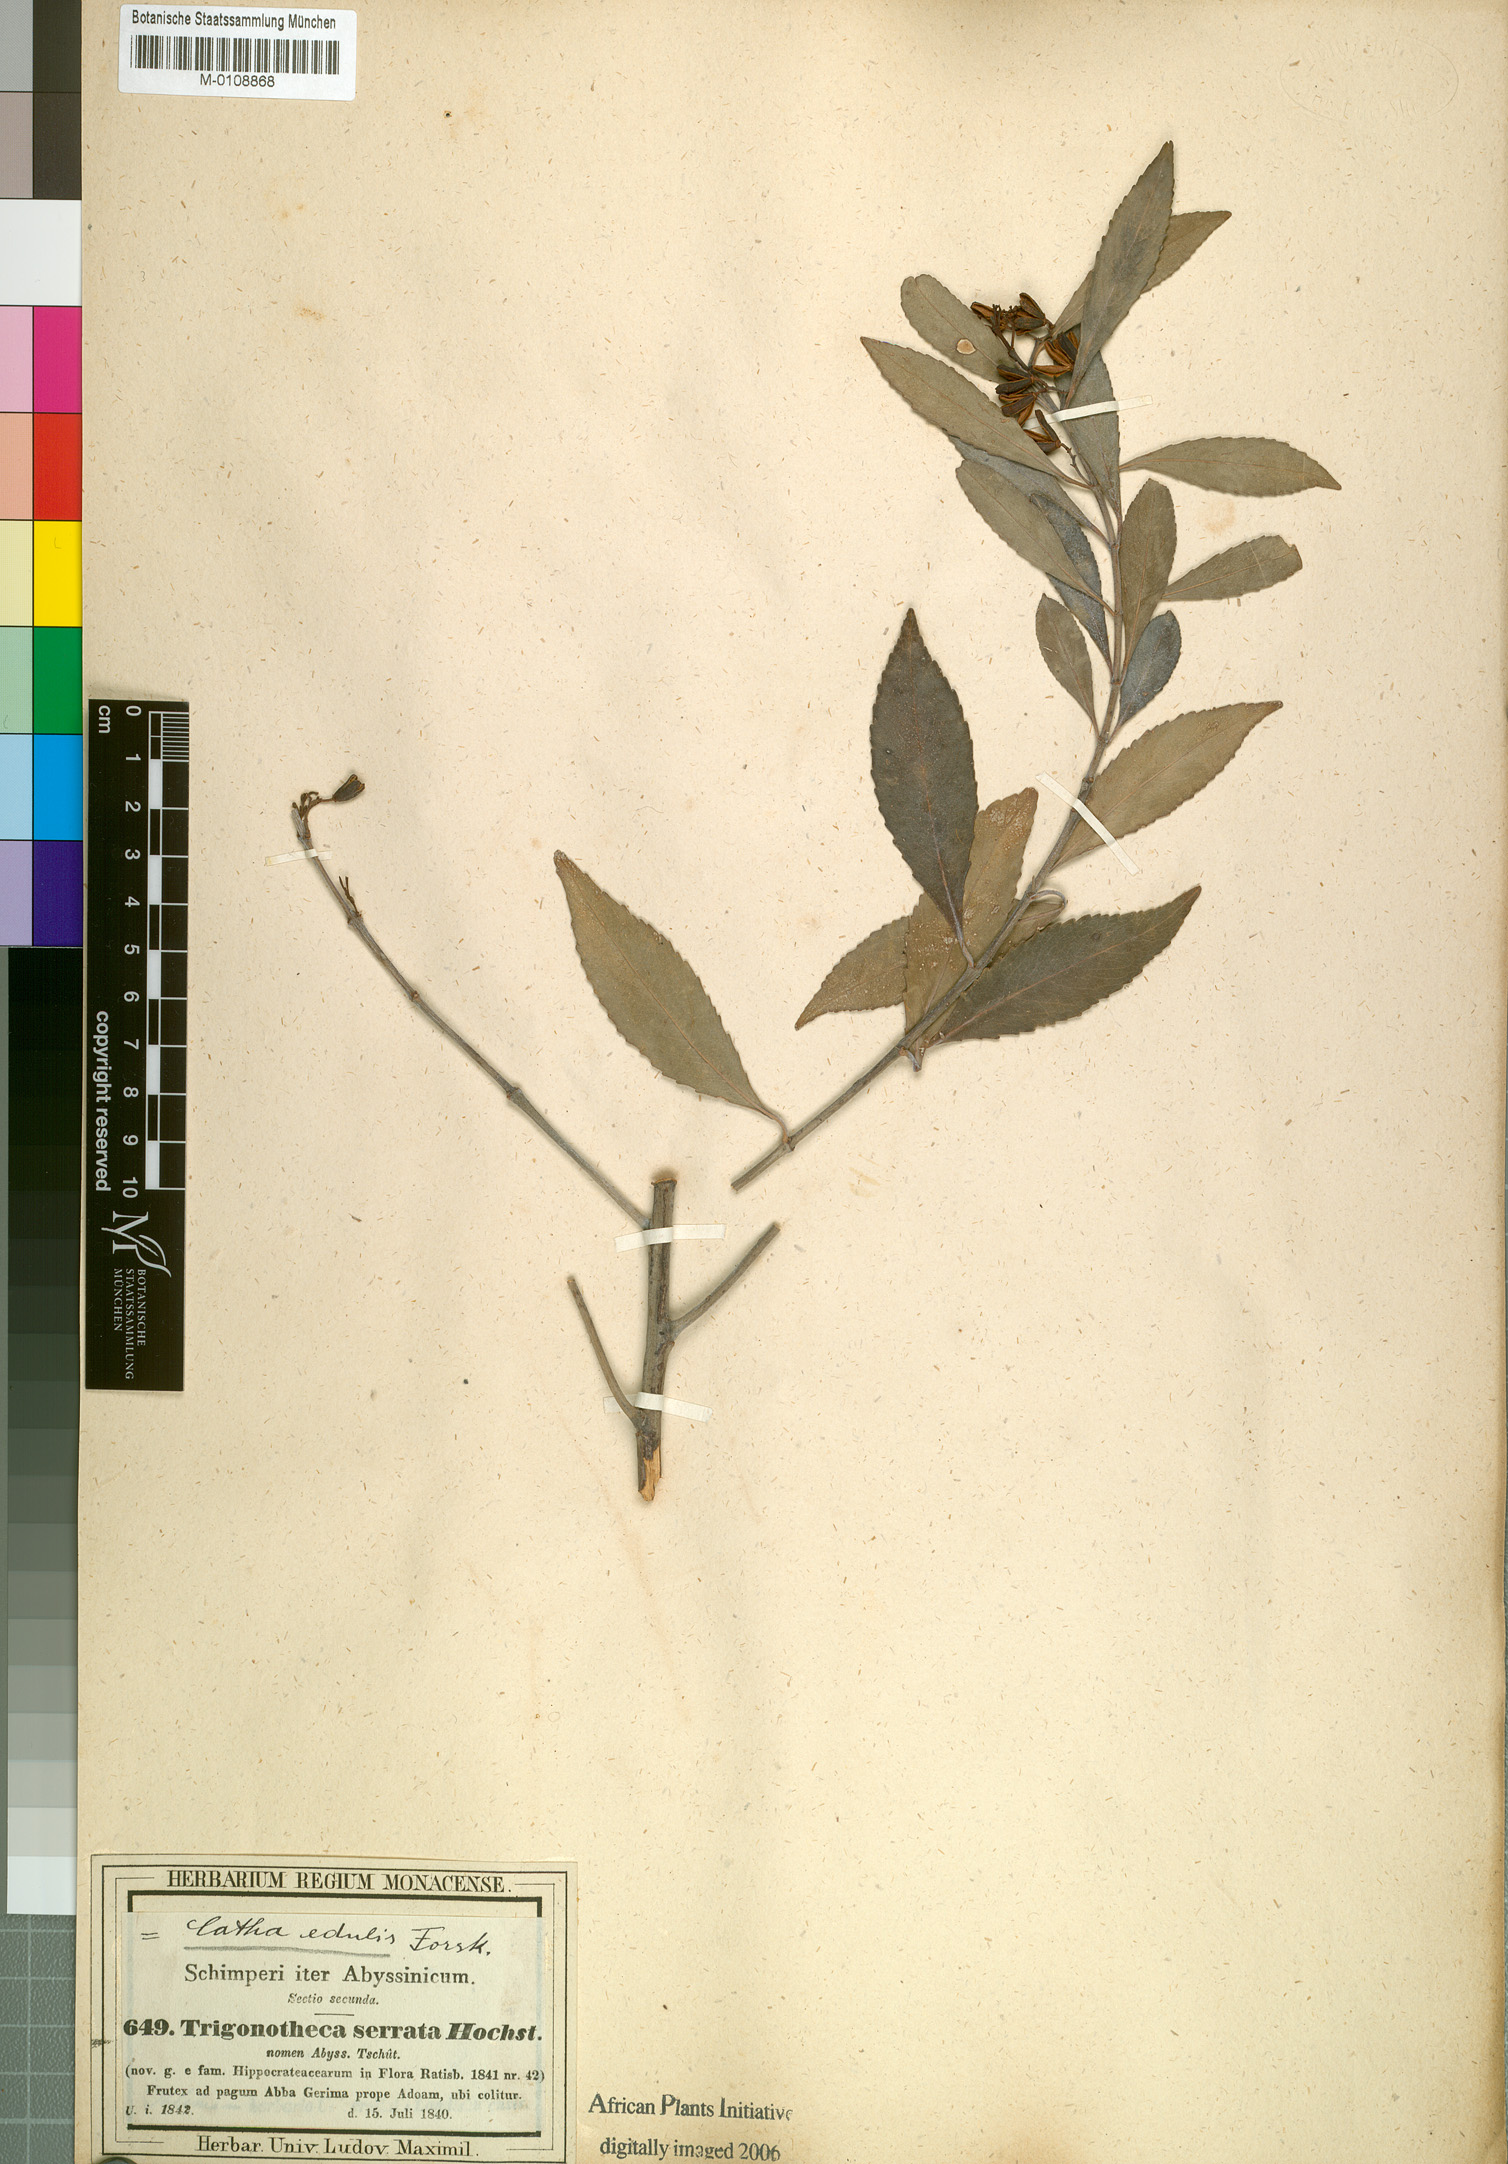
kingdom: Plantae
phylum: Tracheophyta
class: Magnoliopsida
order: Celastrales
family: Celastraceae
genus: Catha
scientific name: Catha edulis
